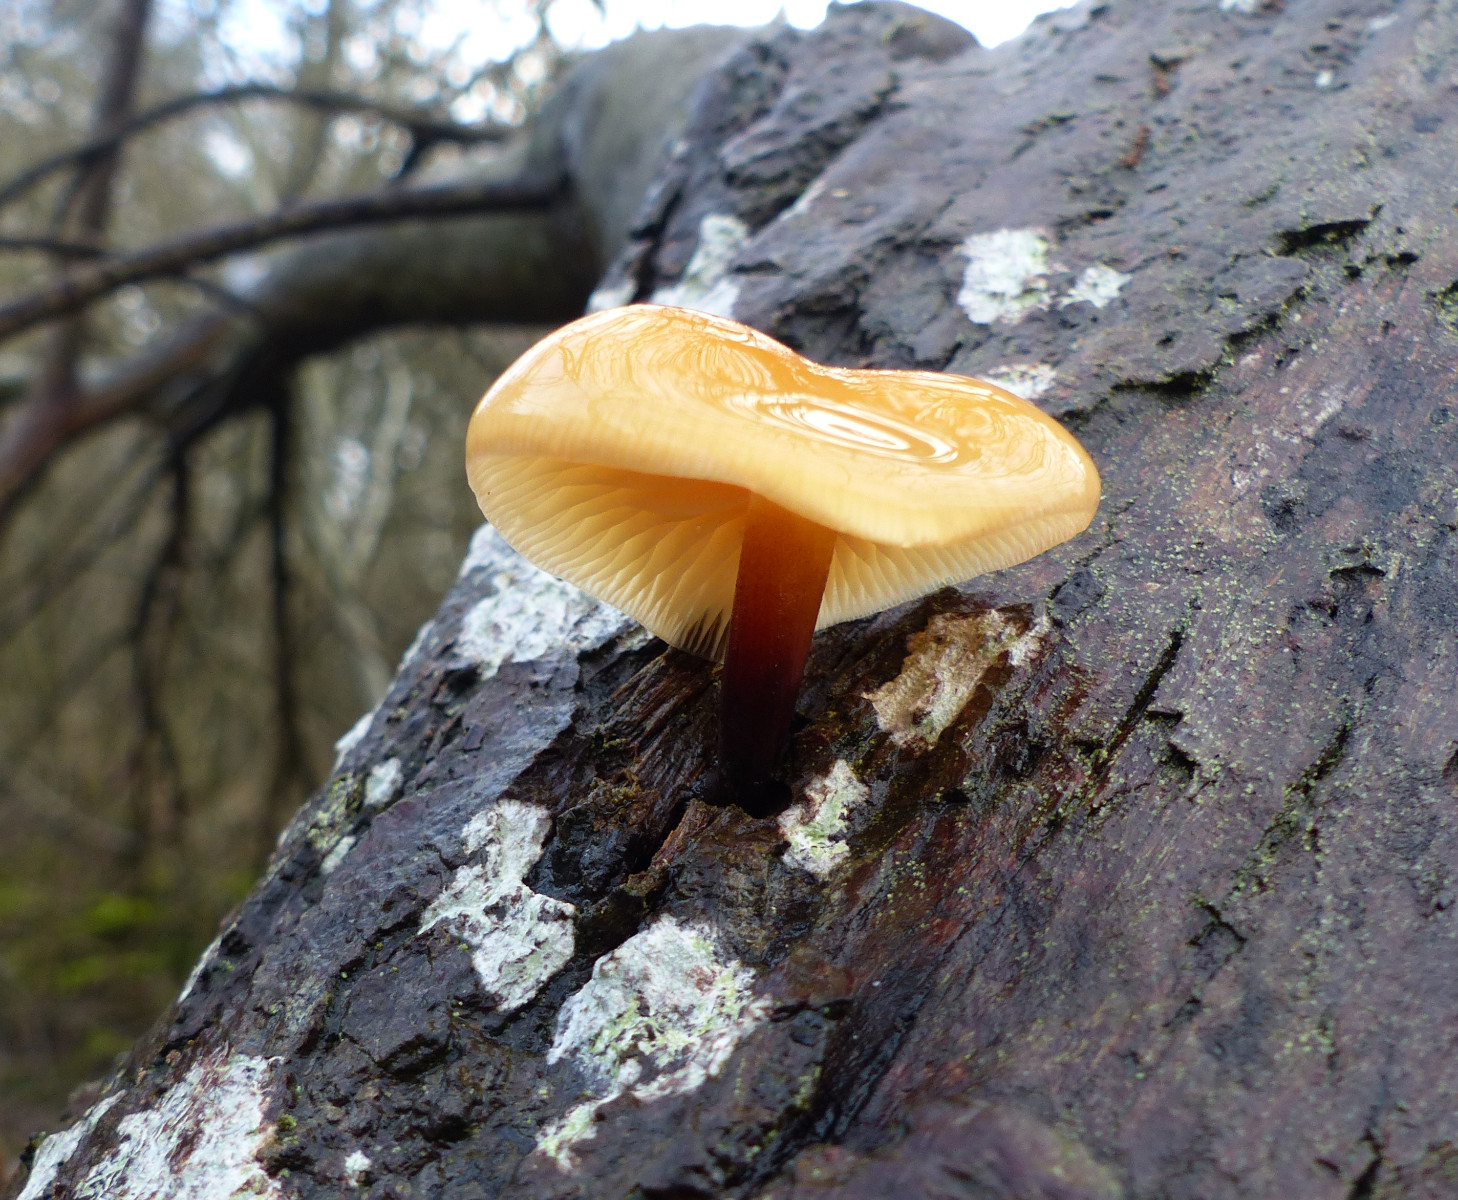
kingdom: Fungi
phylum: Basidiomycota
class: Agaricomycetes
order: Agaricales
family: Physalacriaceae
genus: Flammulina
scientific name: Flammulina elastica
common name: pile-fløjlsfod
